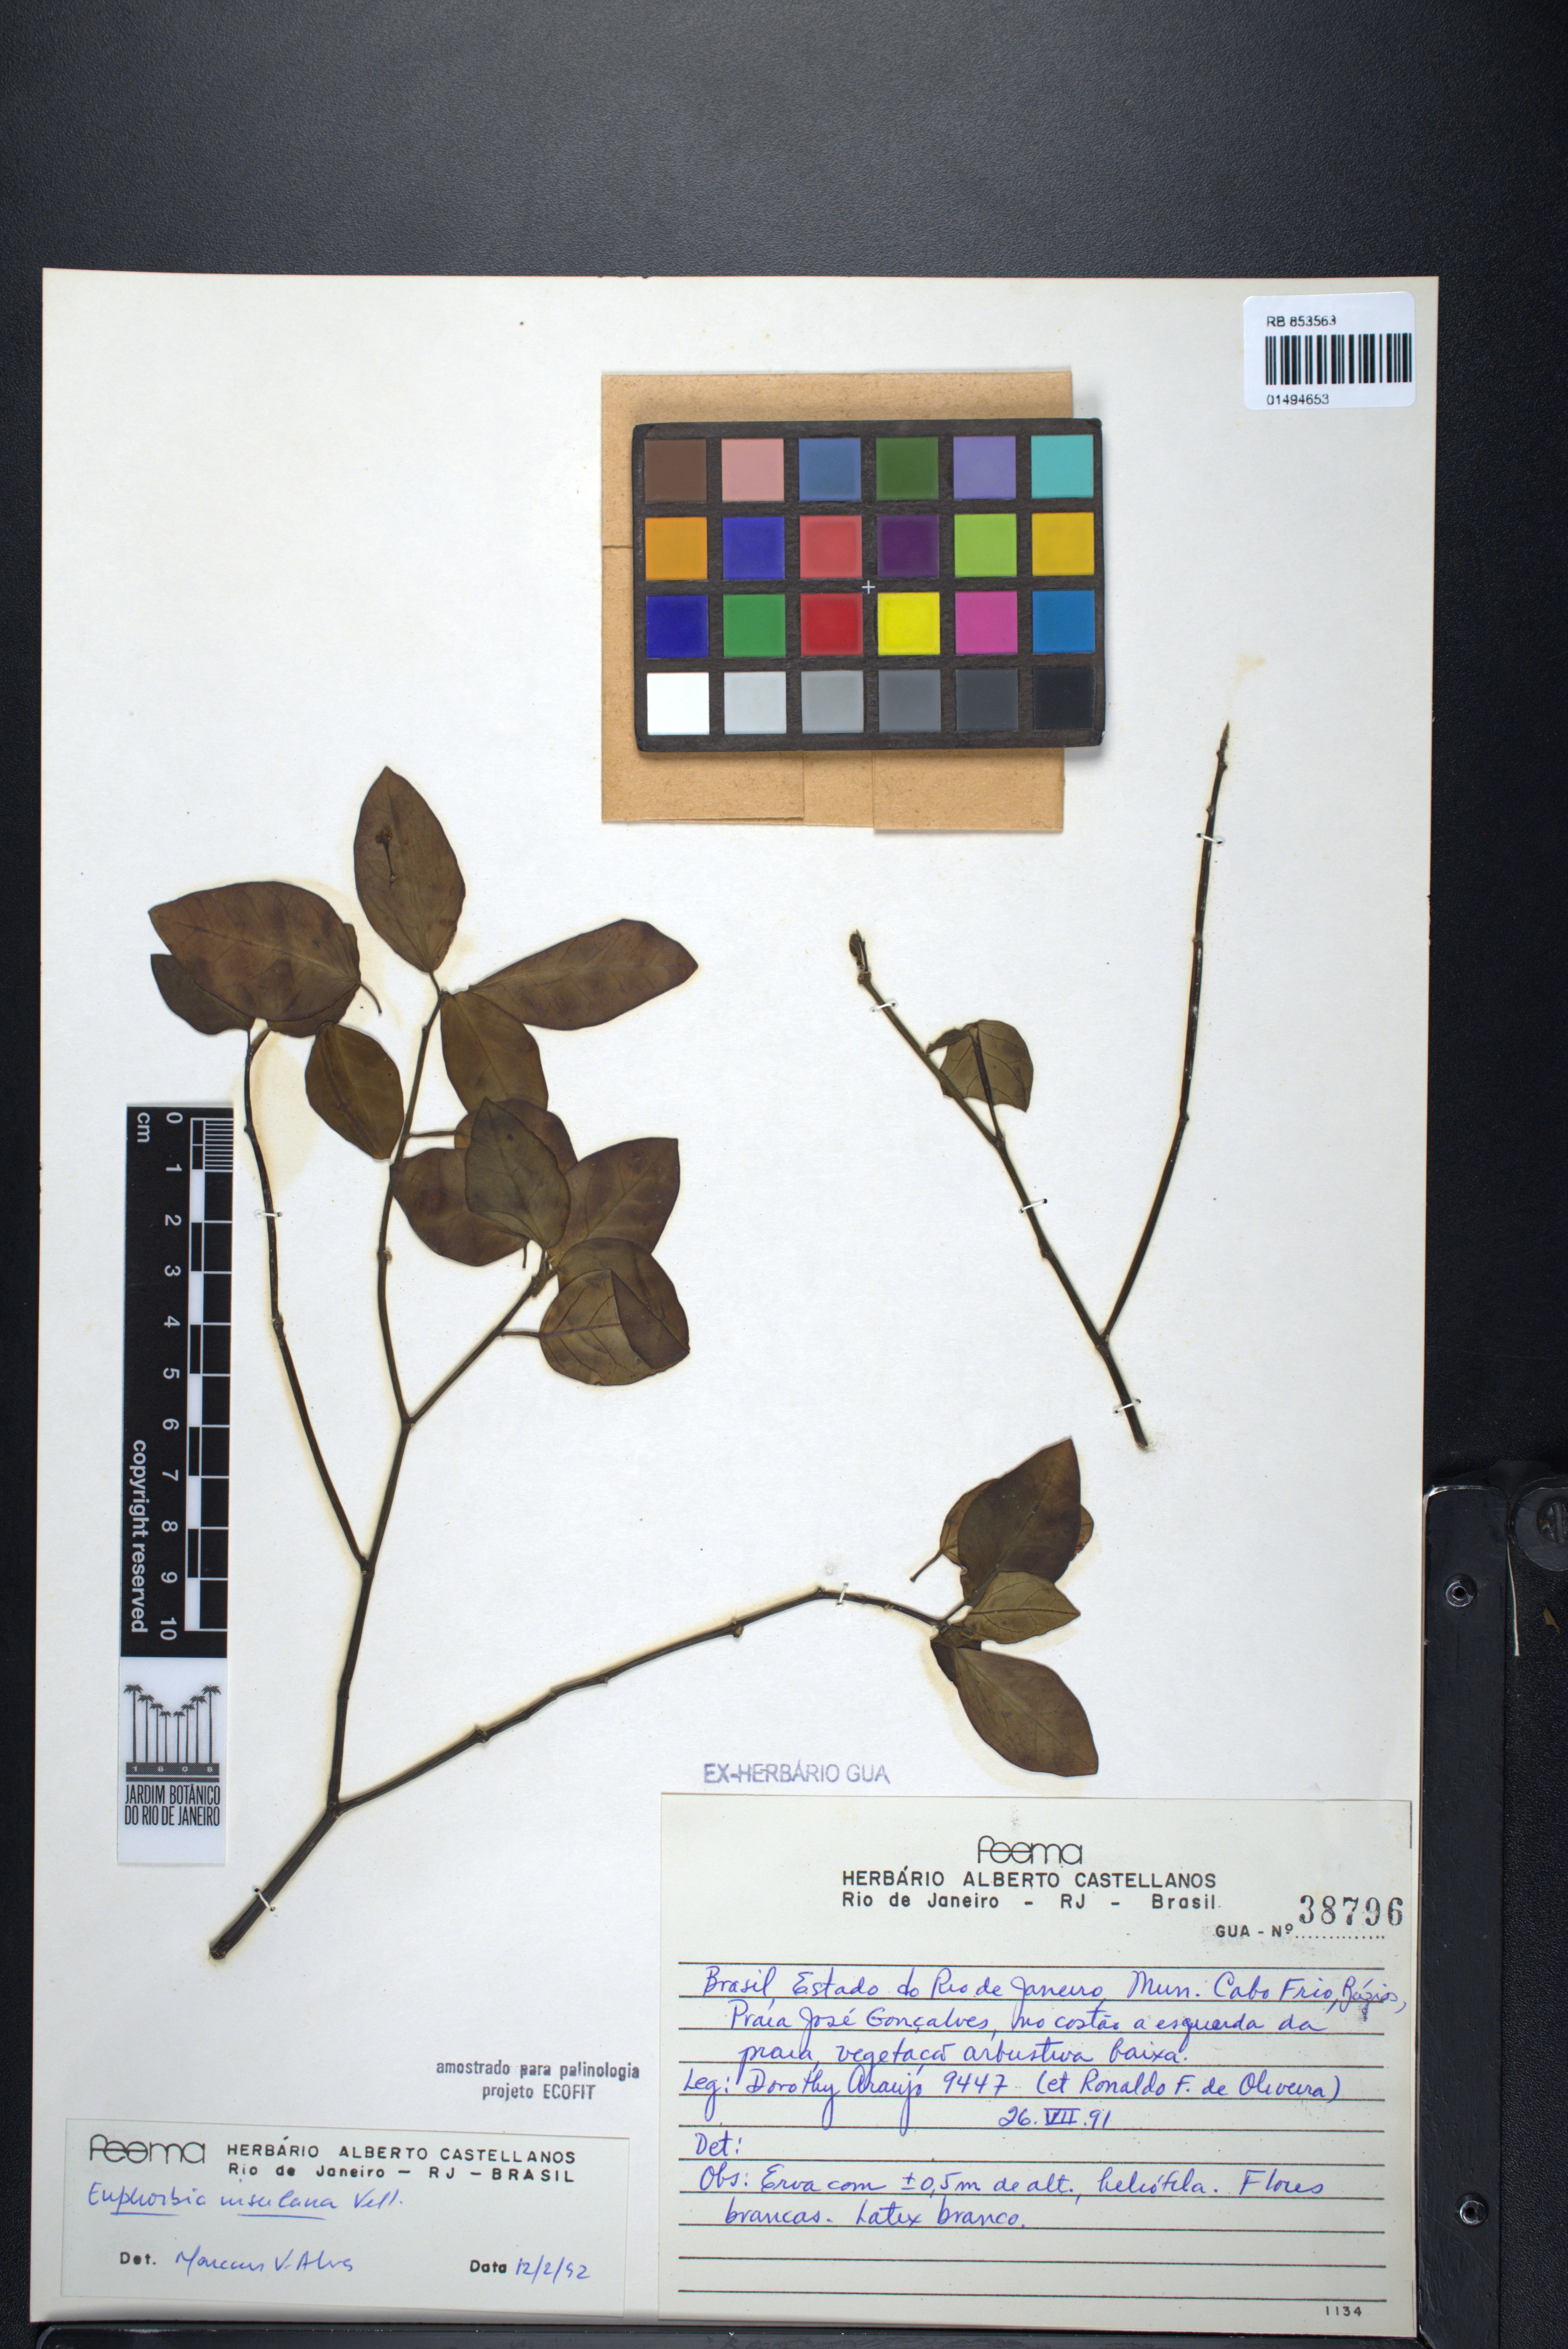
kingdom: Plantae
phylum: Tracheophyta
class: Magnoliopsida
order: Malpighiales
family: Euphorbiaceae
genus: Euphorbia
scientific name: Euphorbia insulana
